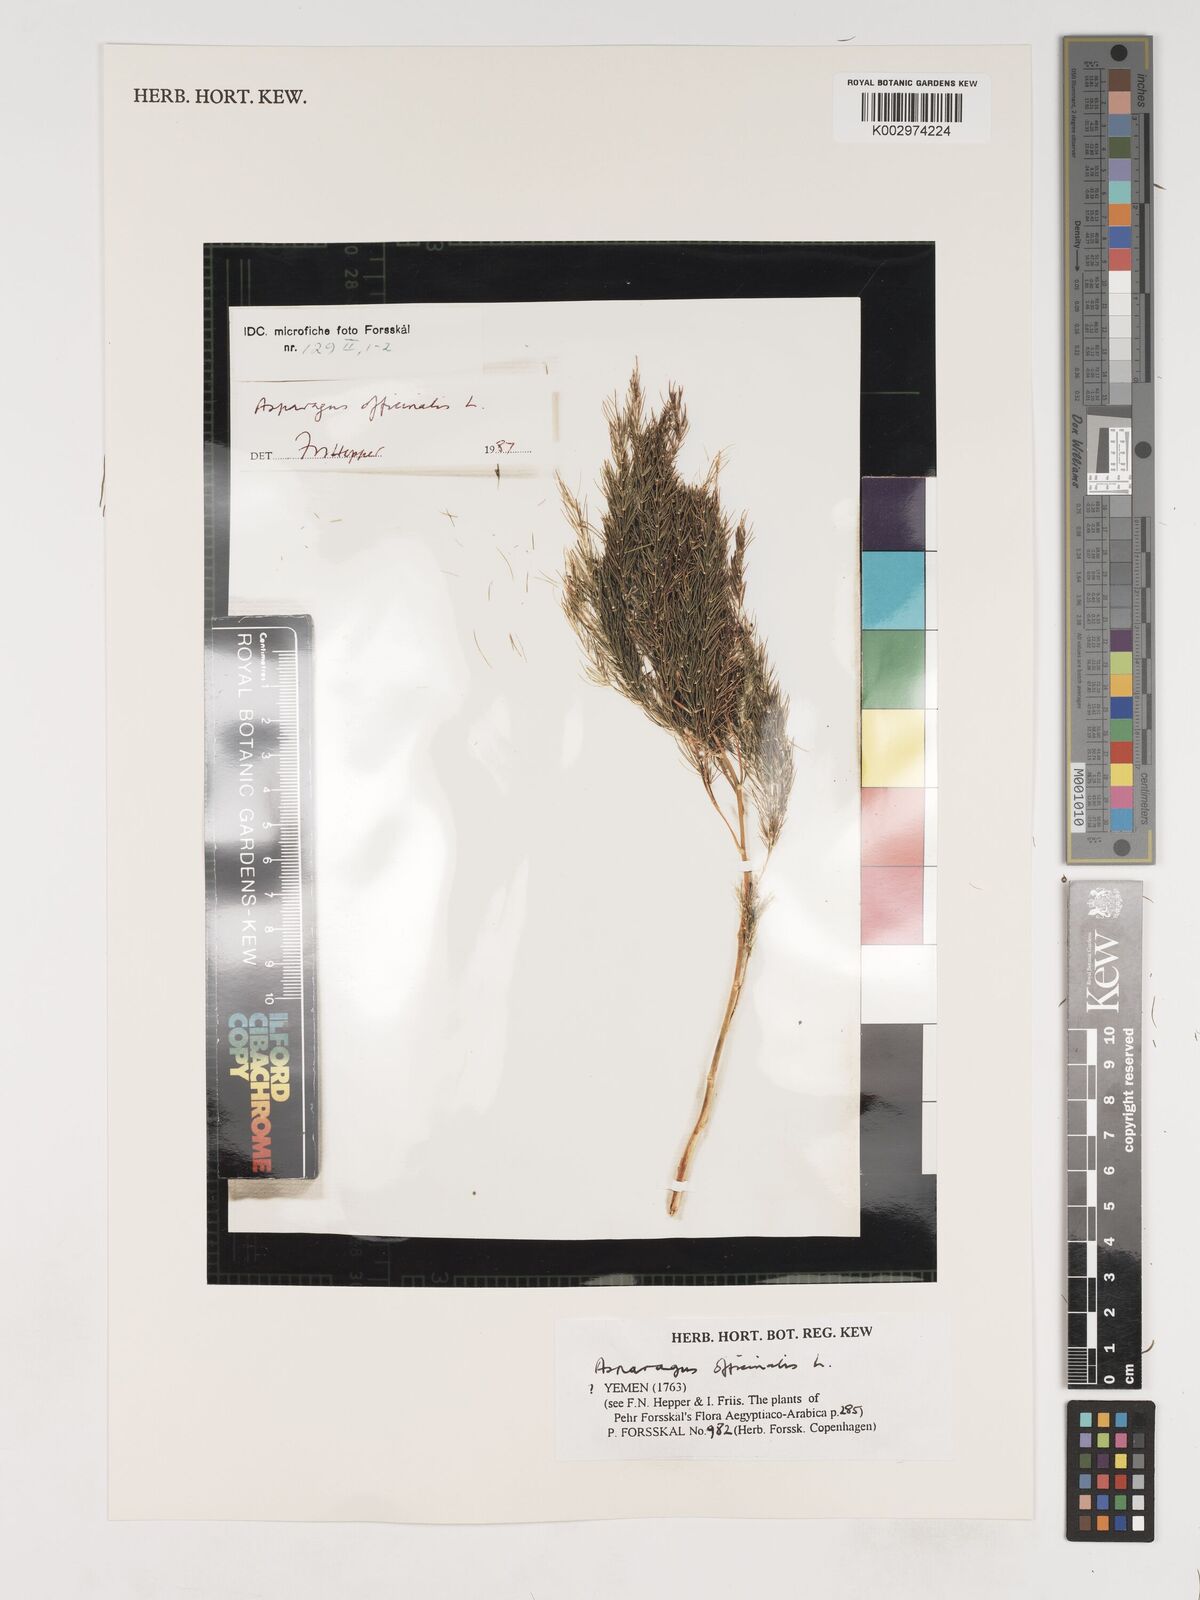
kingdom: Plantae
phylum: Tracheophyta
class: Liliopsida
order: Asparagales
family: Asparagaceae
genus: Asparagus
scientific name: Asparagus officinalis
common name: Garden asparagus
